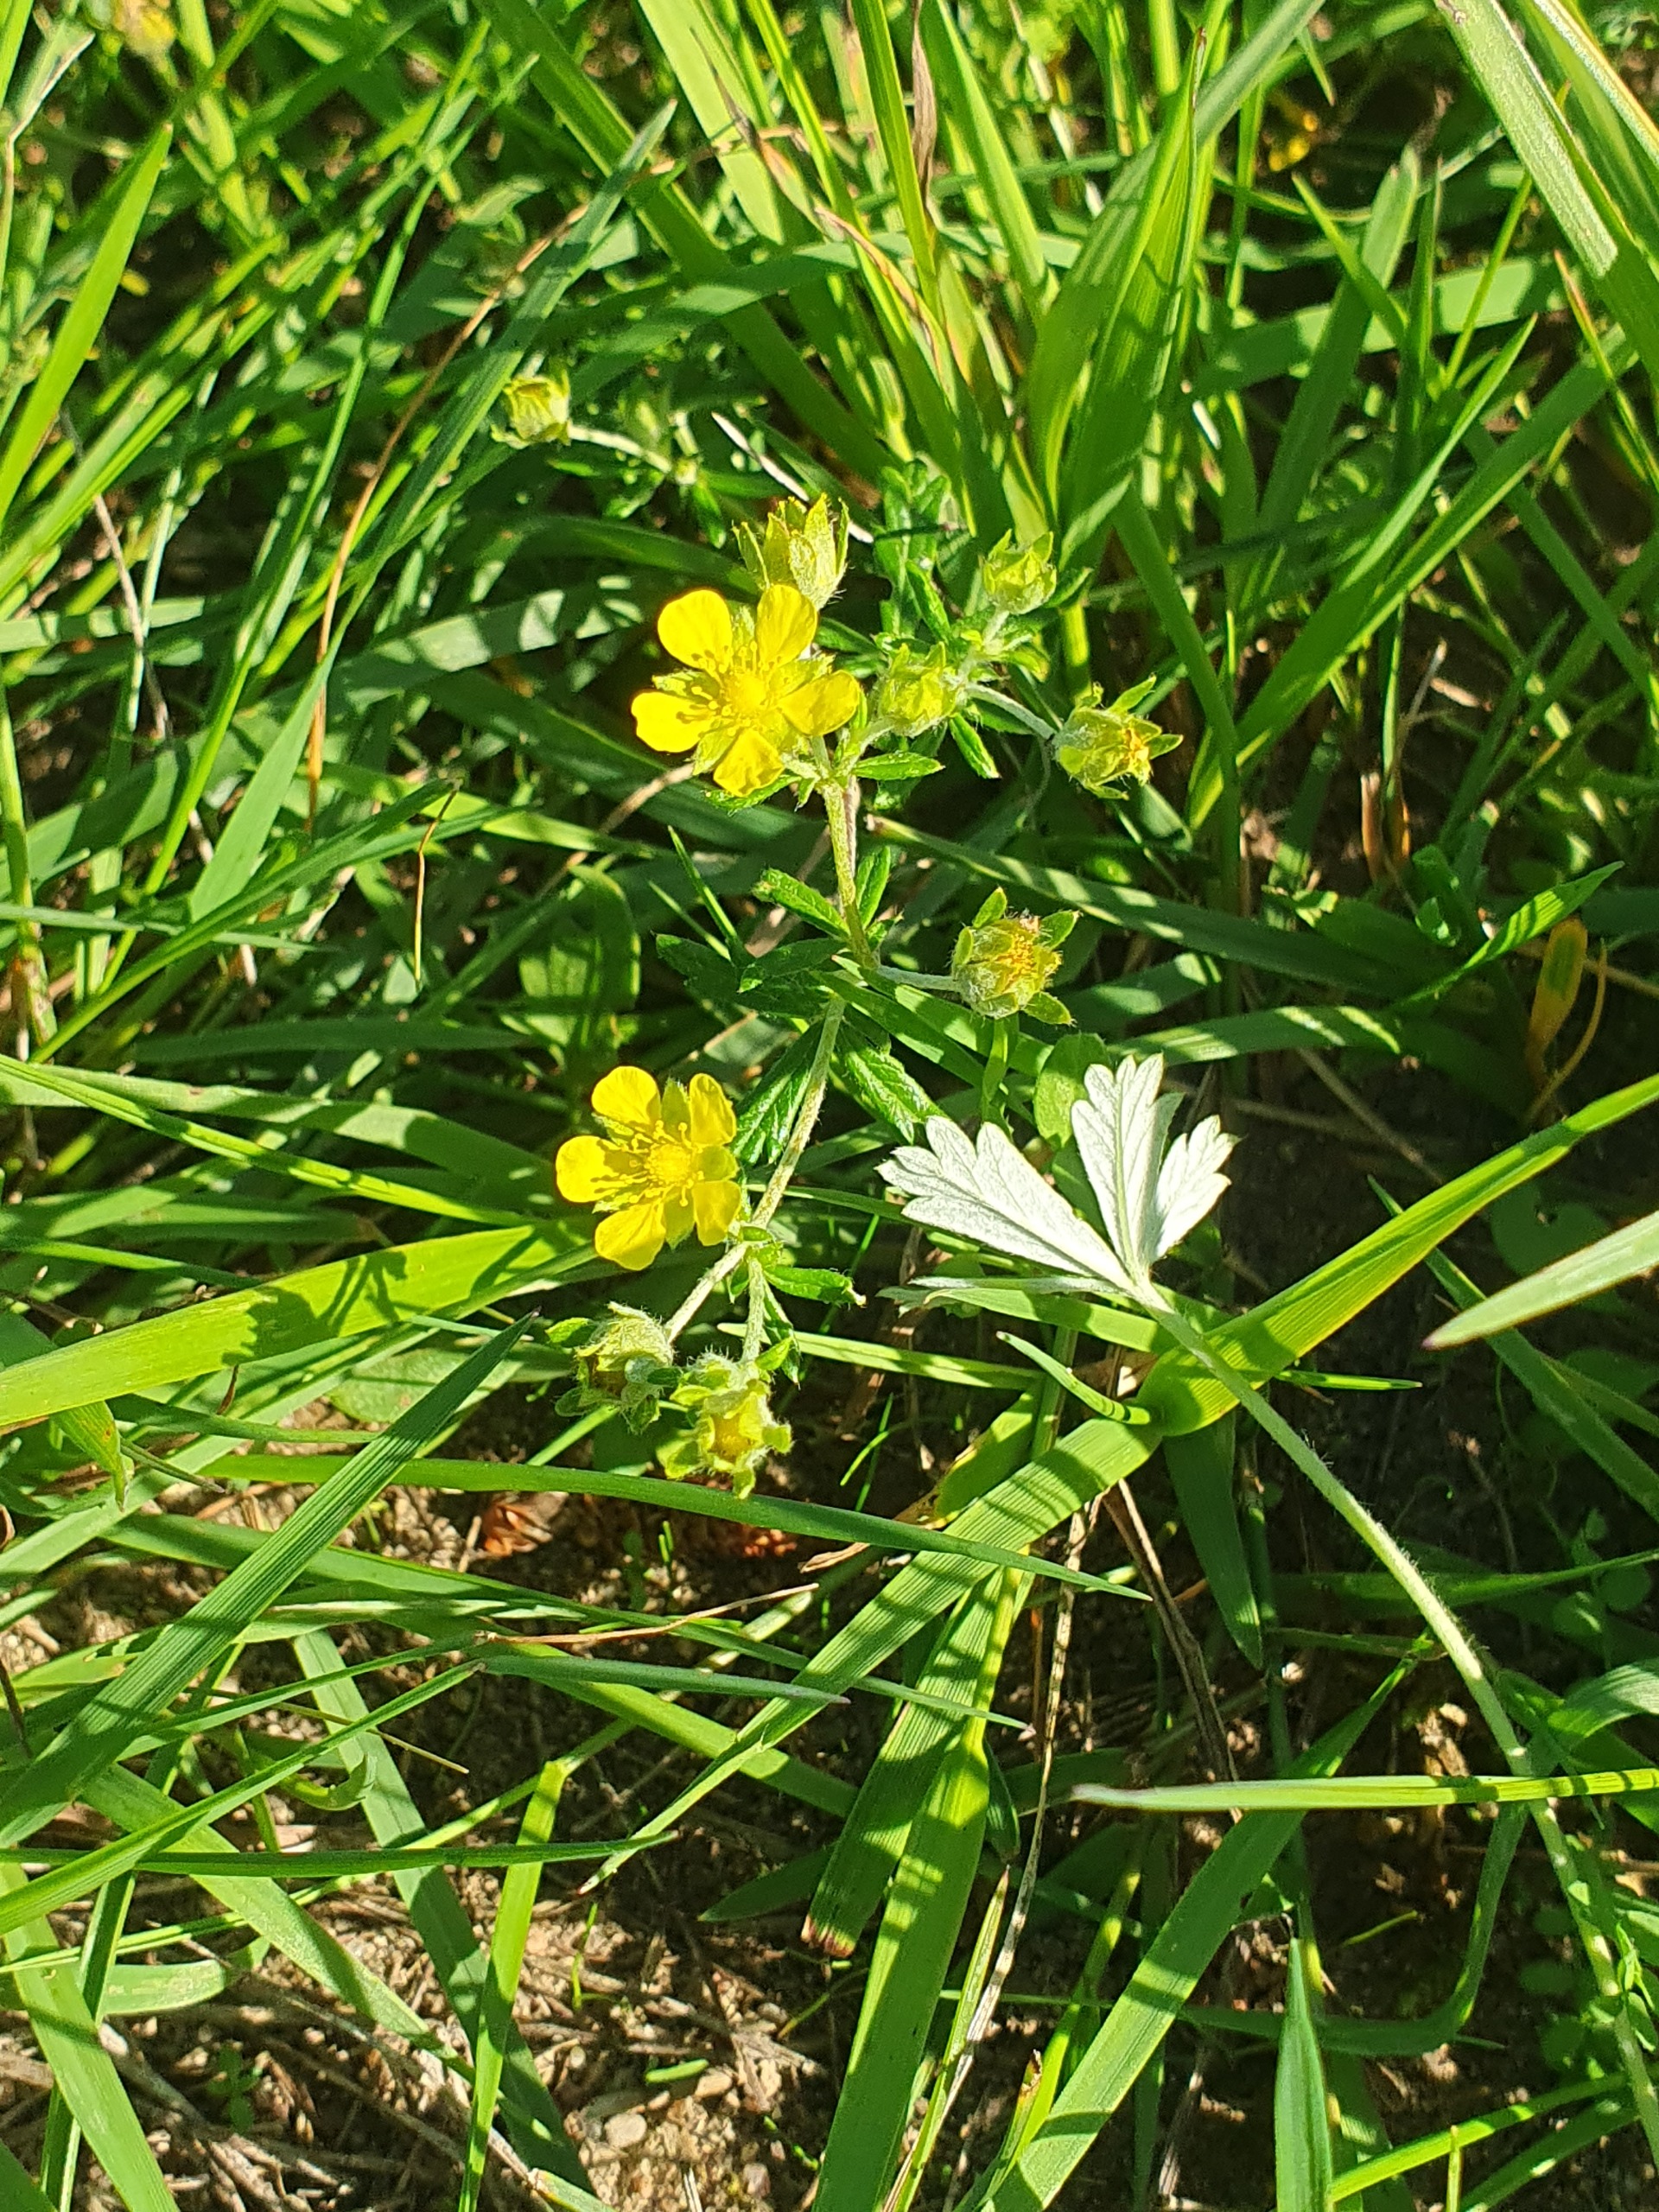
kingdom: Plantae
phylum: Tracheophyta
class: Magnoliopsida
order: Rosales
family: Rosaceae
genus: Potentilla
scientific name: Potentilla argentea
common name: Sølv-potentil
